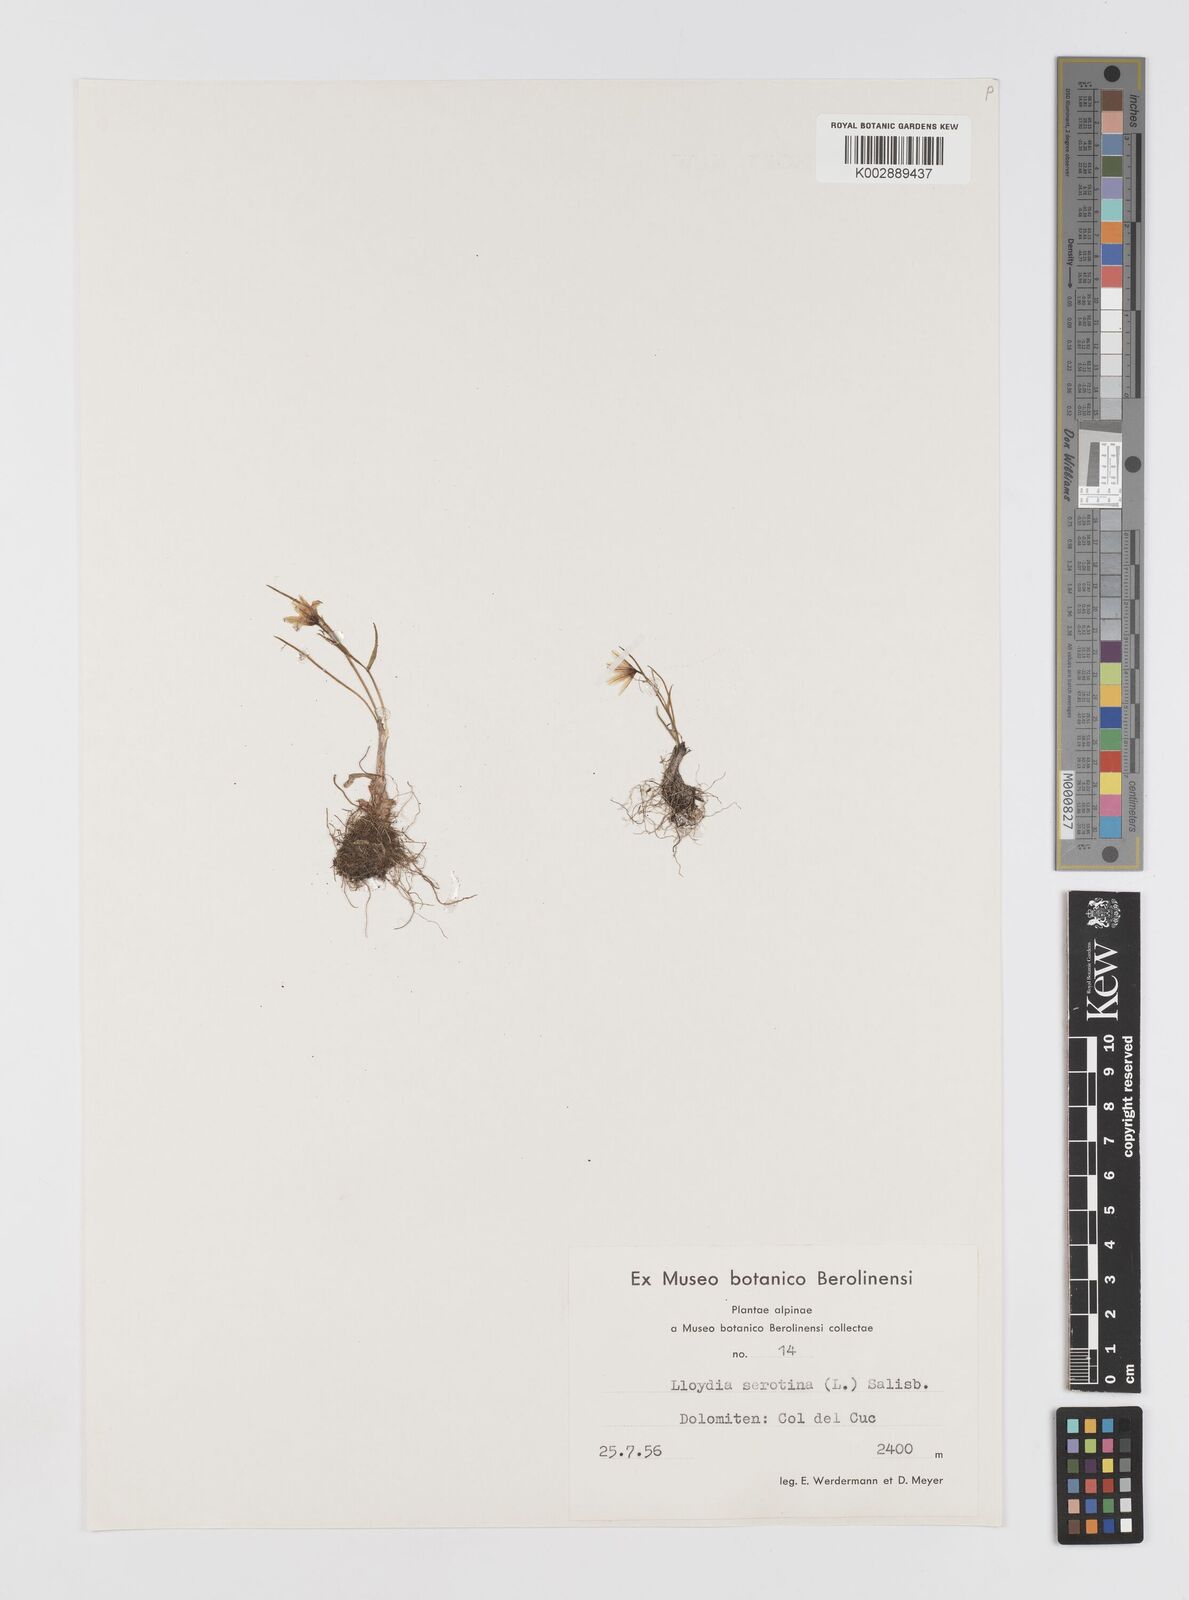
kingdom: Plantae
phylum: Tracheophyta
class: Liliopsida
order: Liliales
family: Liliaceae
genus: Gagea
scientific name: Gagea
